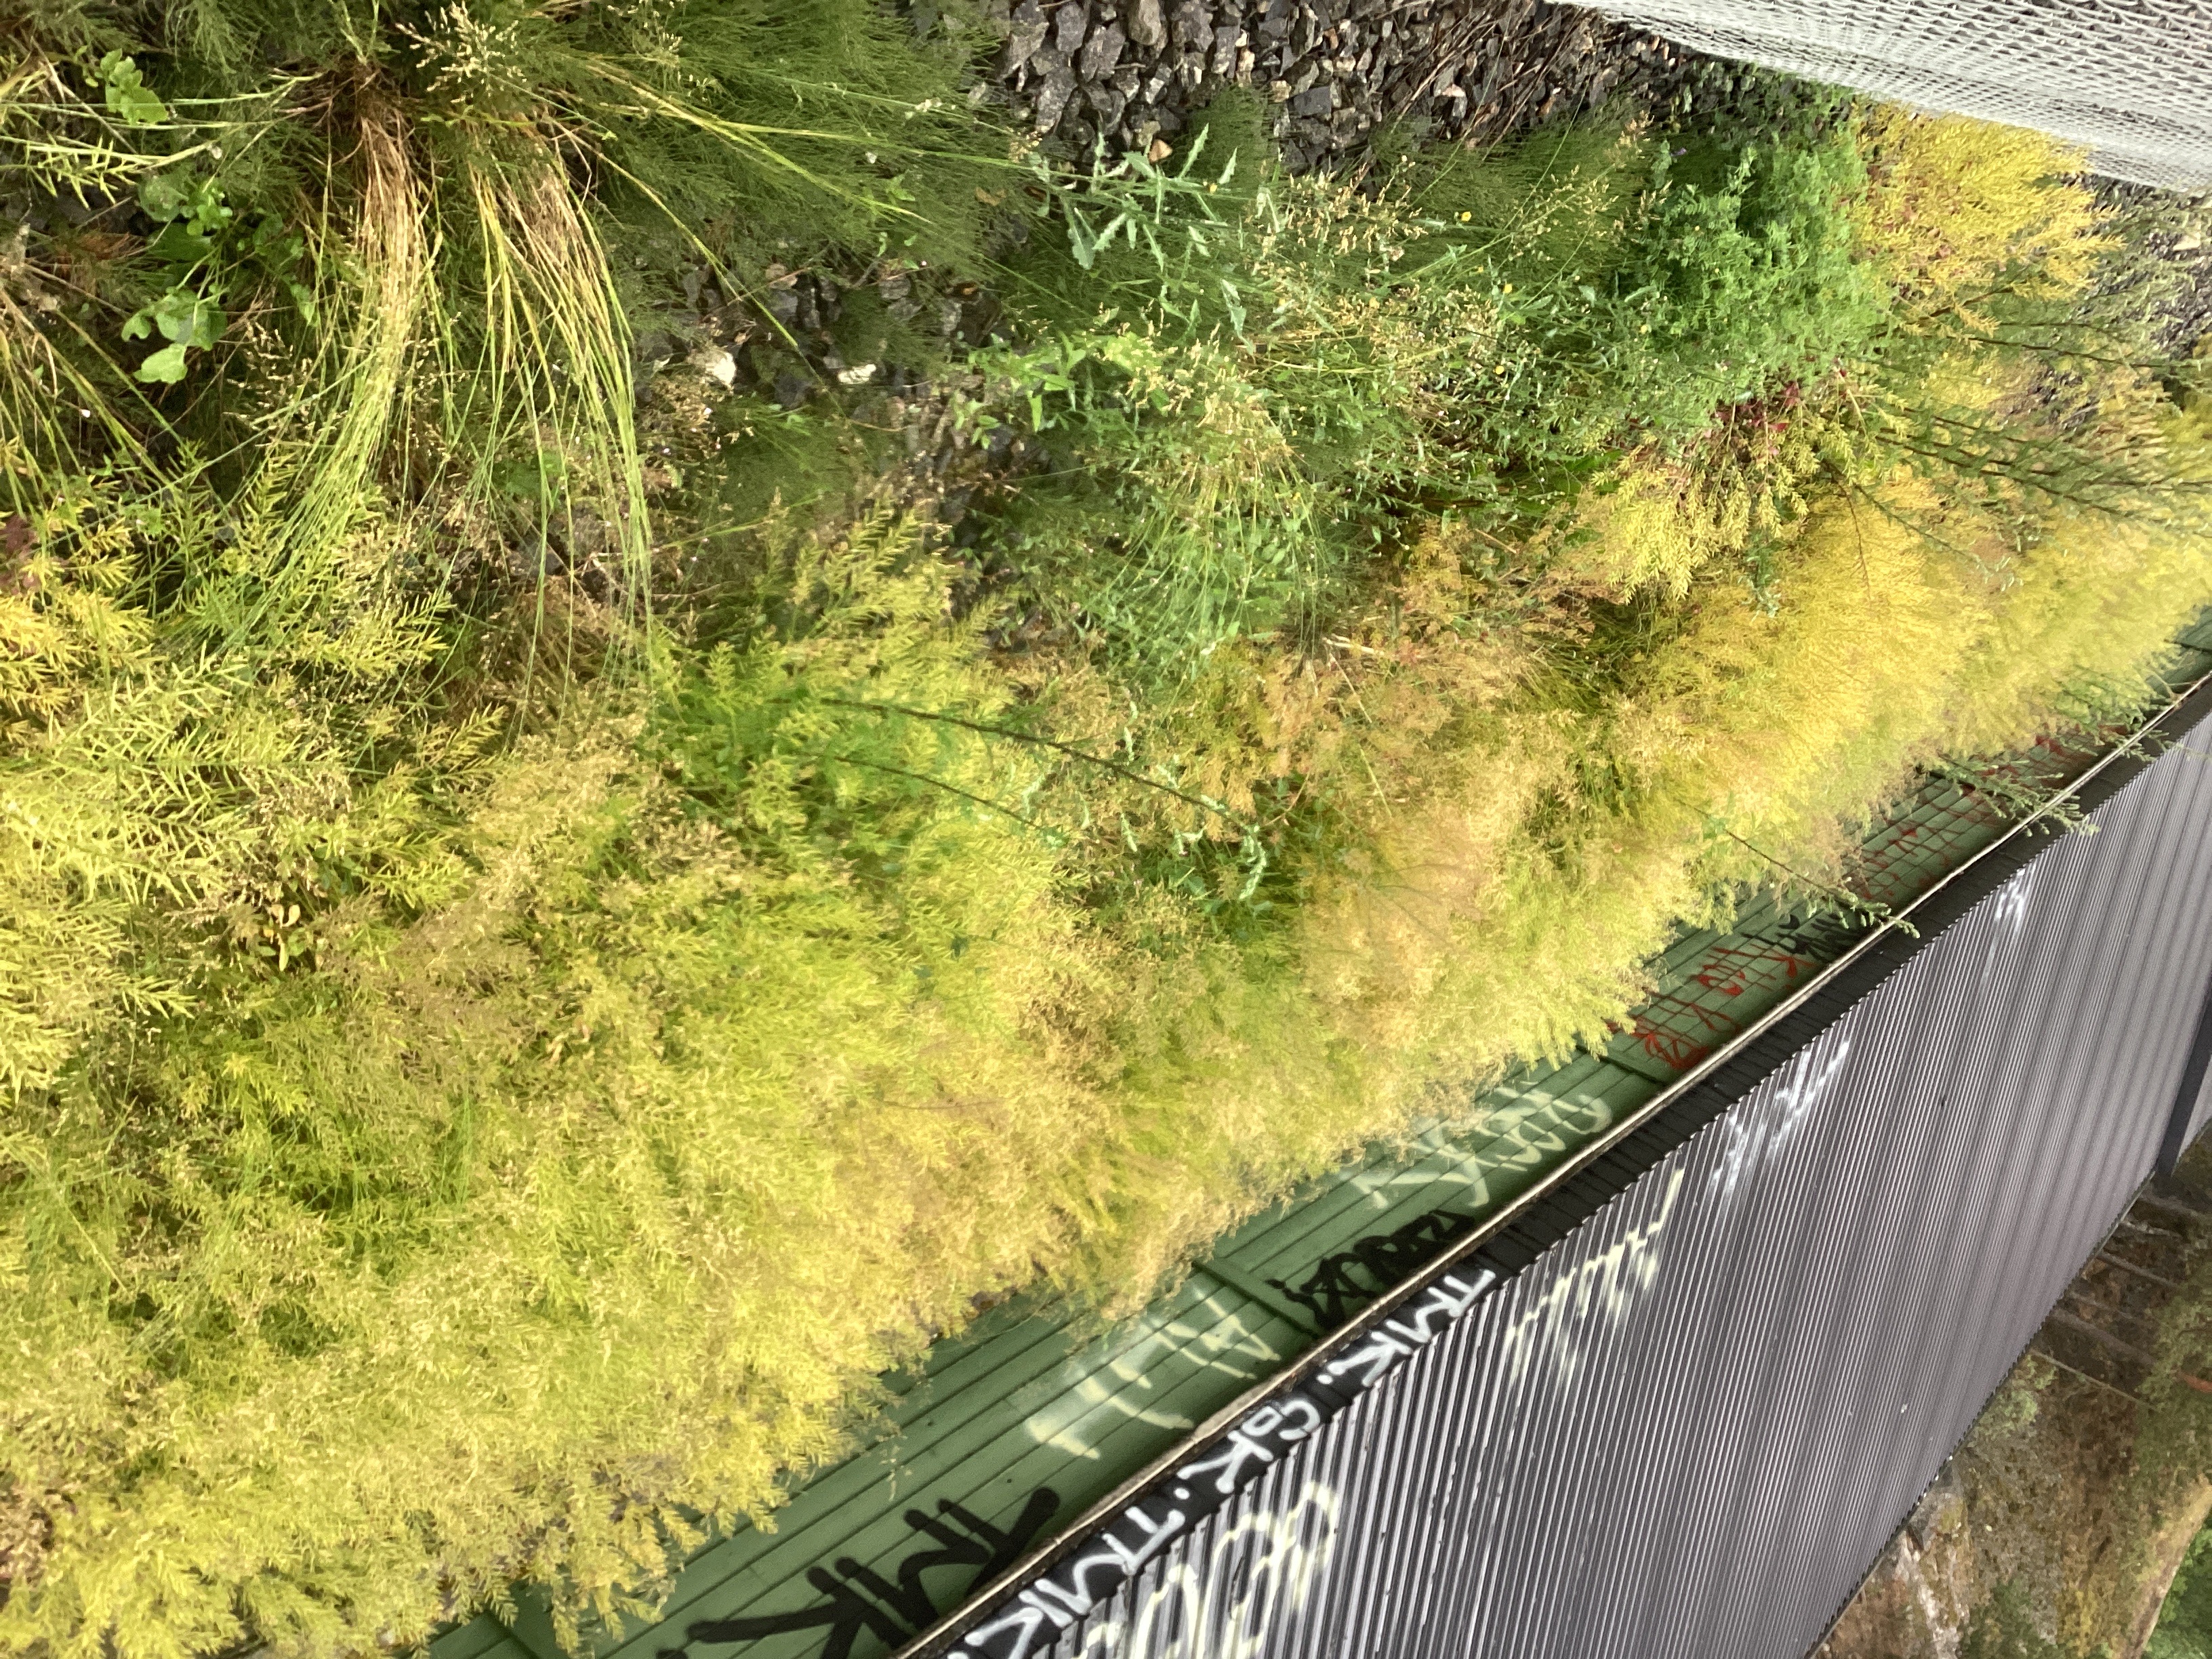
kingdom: Plantae
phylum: Tracheophyta
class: Magnoliopsida
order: Brassicales
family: Brassicaceae
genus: Barbarea
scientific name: Barbarea vulgaris
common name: vinterkarse
